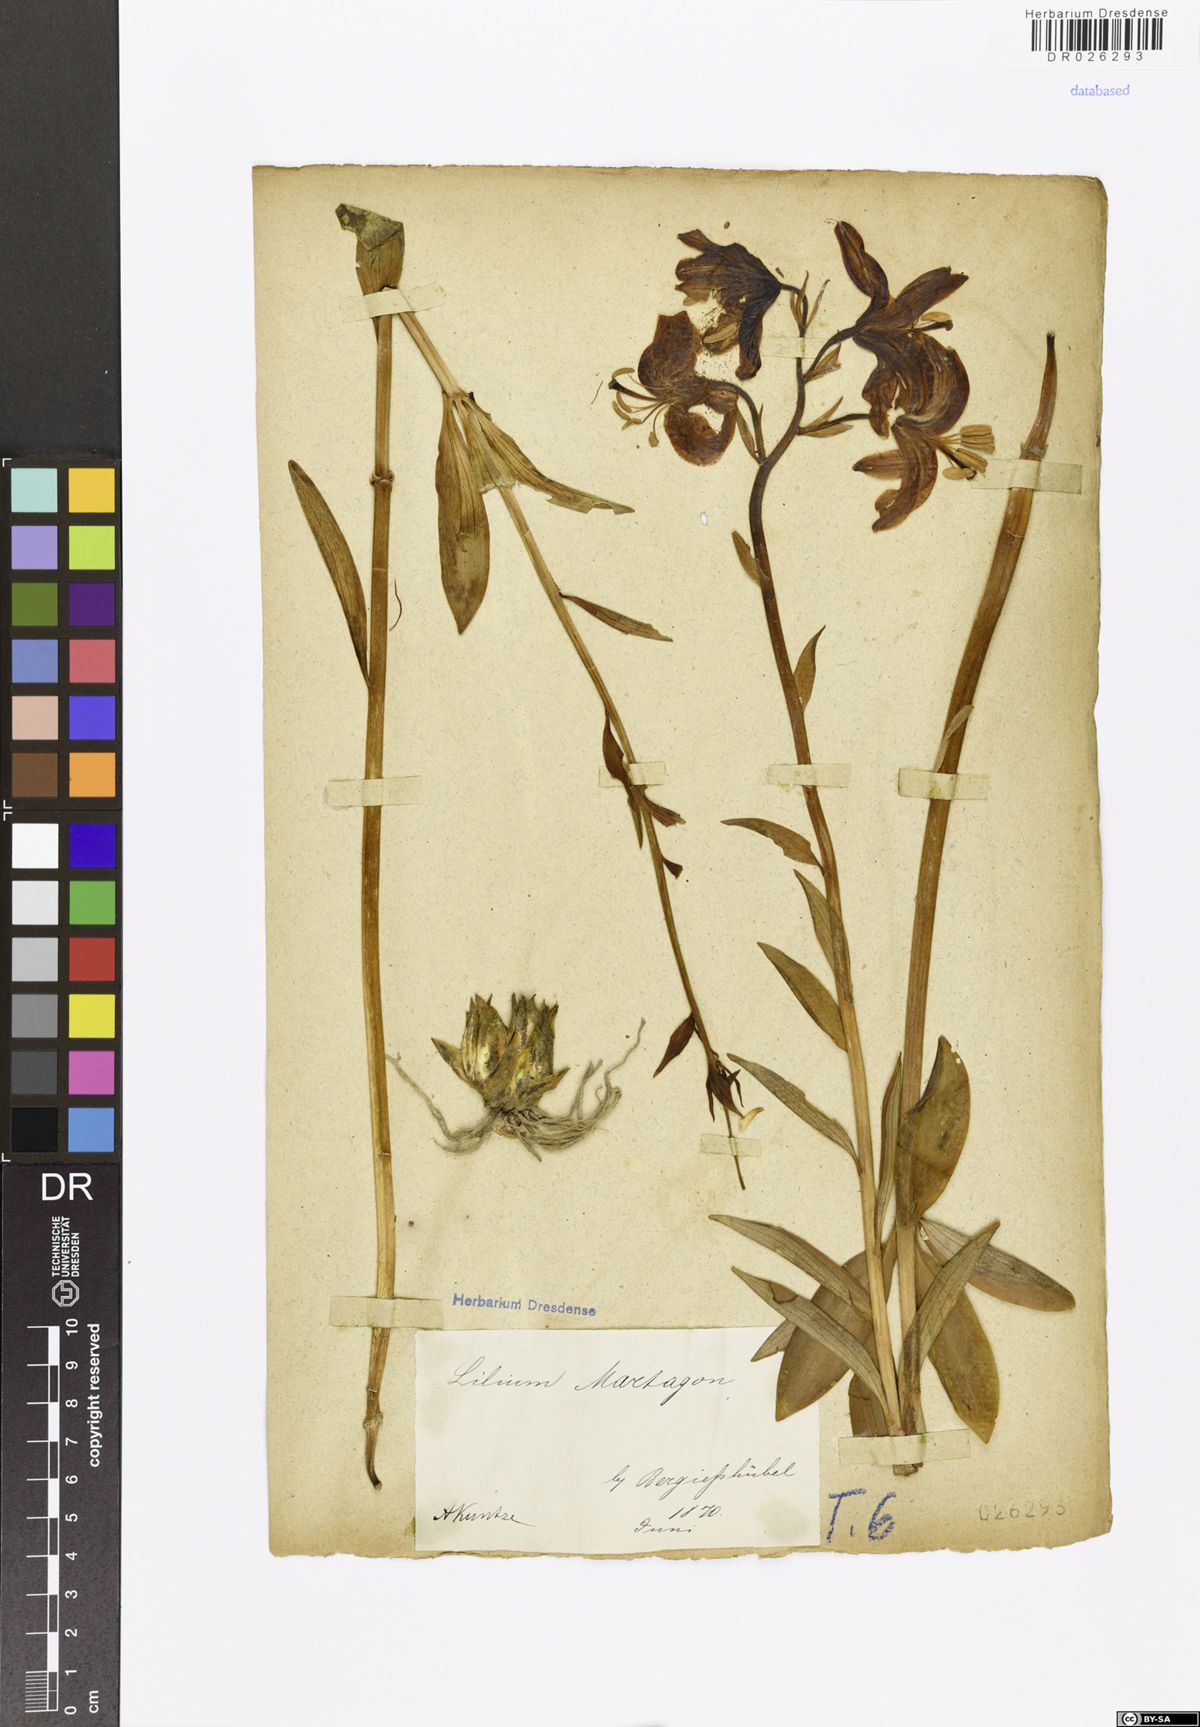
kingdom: Plantae
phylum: Tracheophyta
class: Liliopsida
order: Liliales
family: Liliaceae
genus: Lilium
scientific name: Lilium martagon
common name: Martagon lily
